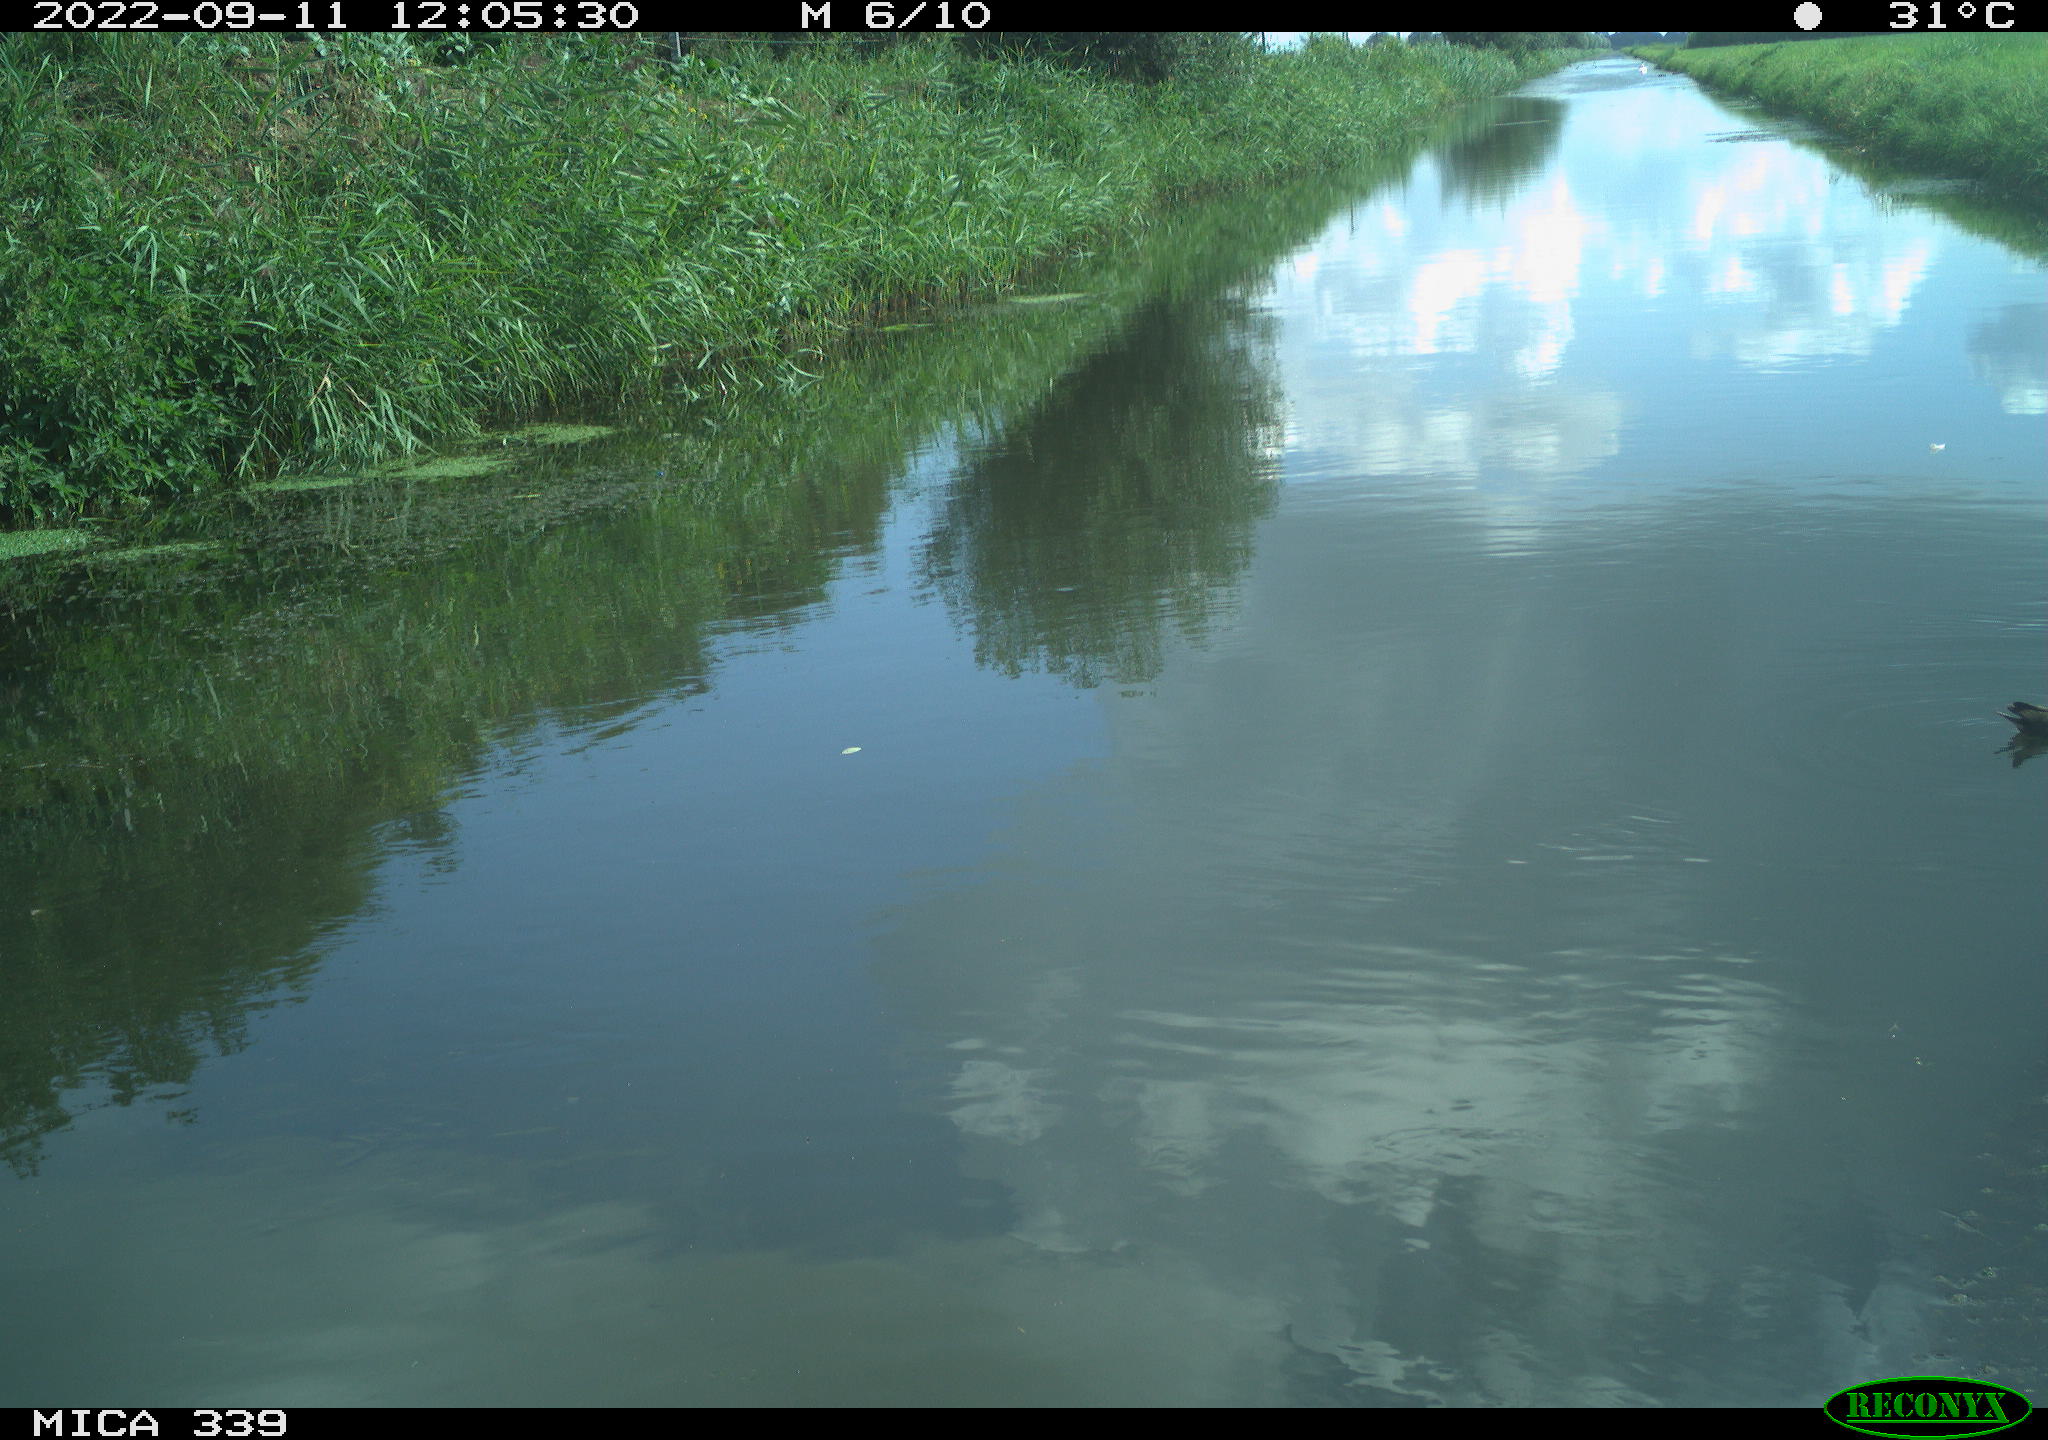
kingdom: Animalia
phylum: Chordata
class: Aves
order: Gruiformes
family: Rallidae
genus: Gallinula
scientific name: Gallinula chloropus
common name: Common moorhen
